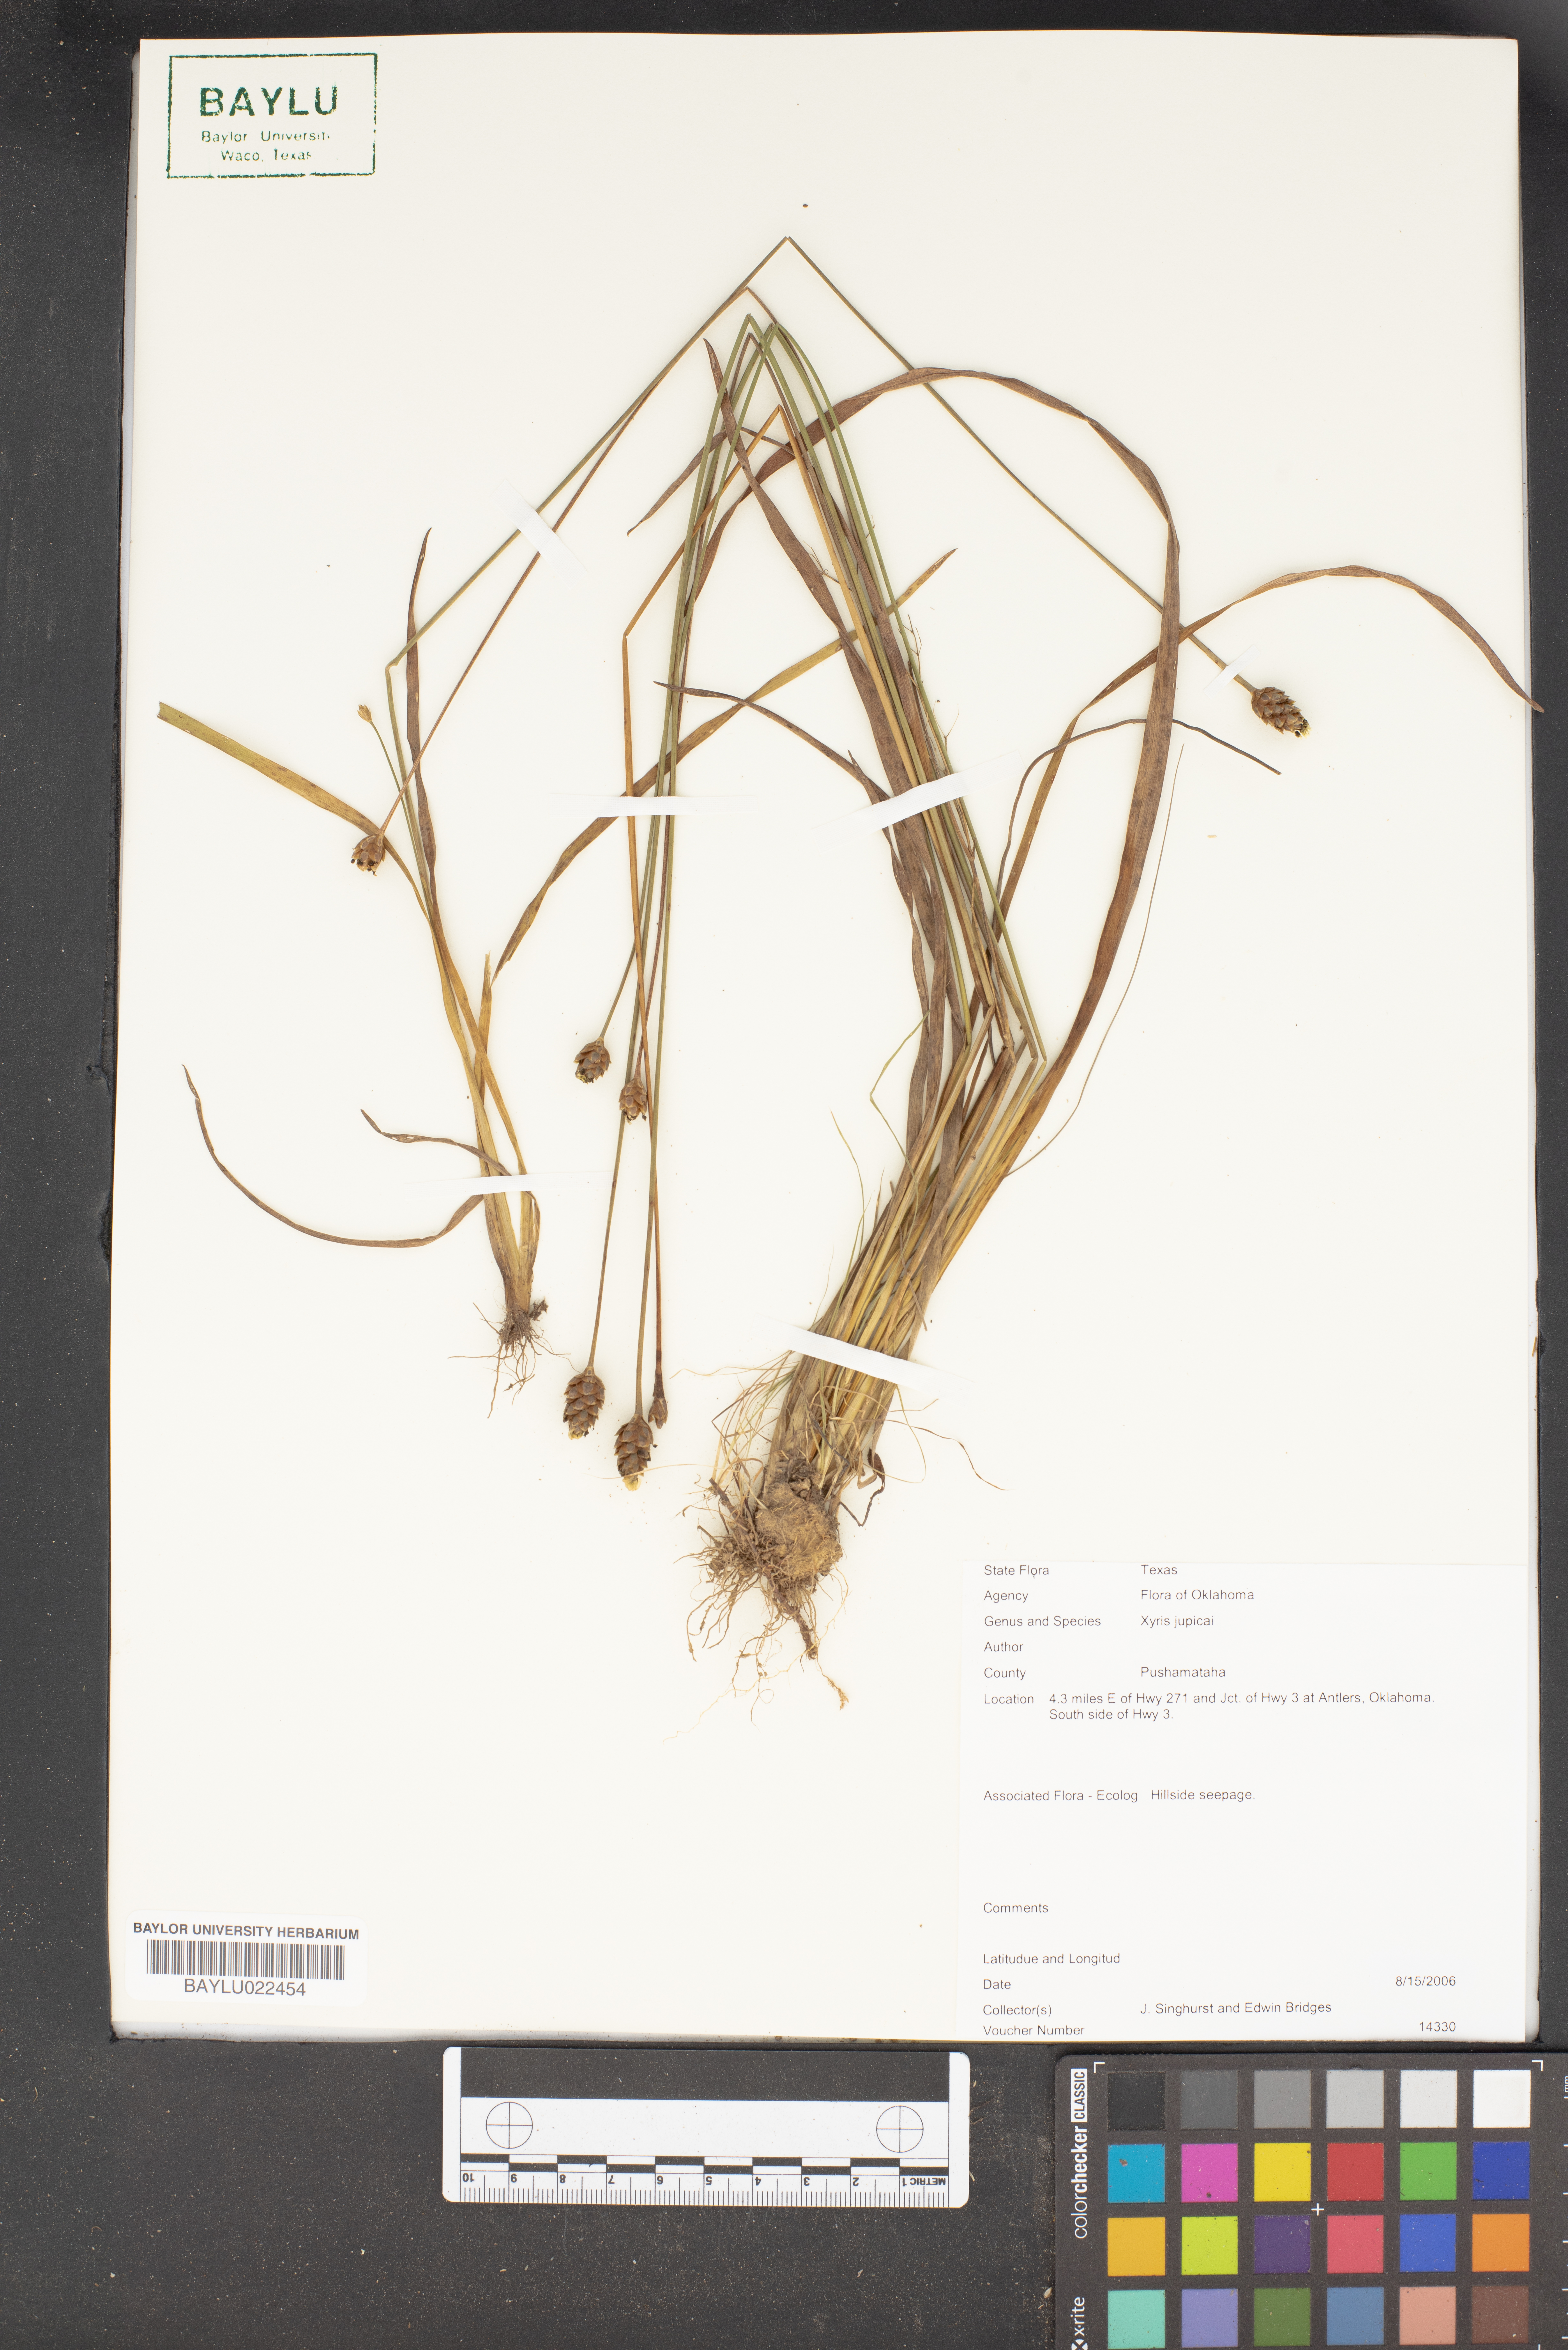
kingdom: Plantae
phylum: Tracheophyta
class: Liliopsida
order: Poales
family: Xyridaceae
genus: Xyris
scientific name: Xyris jupicai
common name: Richard's yelloweyed grass
